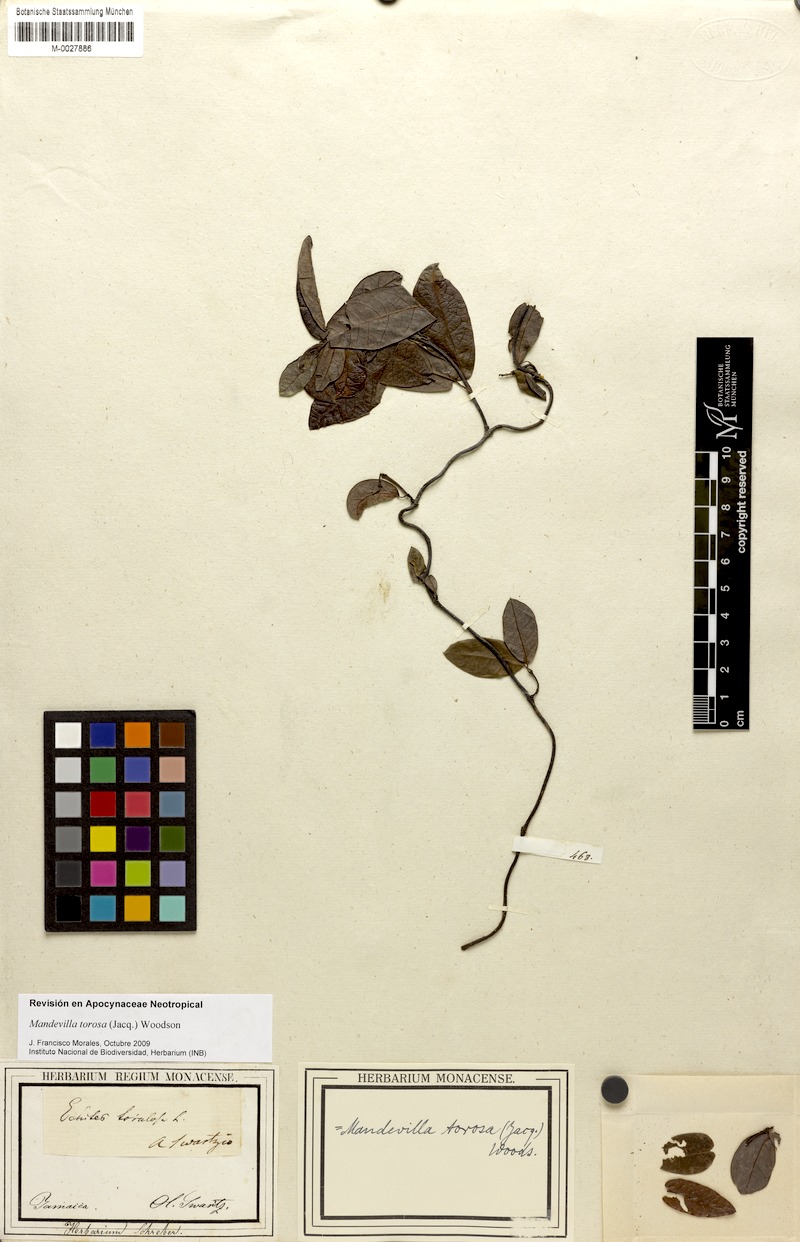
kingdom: Plantae
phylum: Tracheophyta
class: Magnoliopsida
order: Gentianales
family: Apocynaceae
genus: Mandevilla
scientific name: Mandevilla torosa
